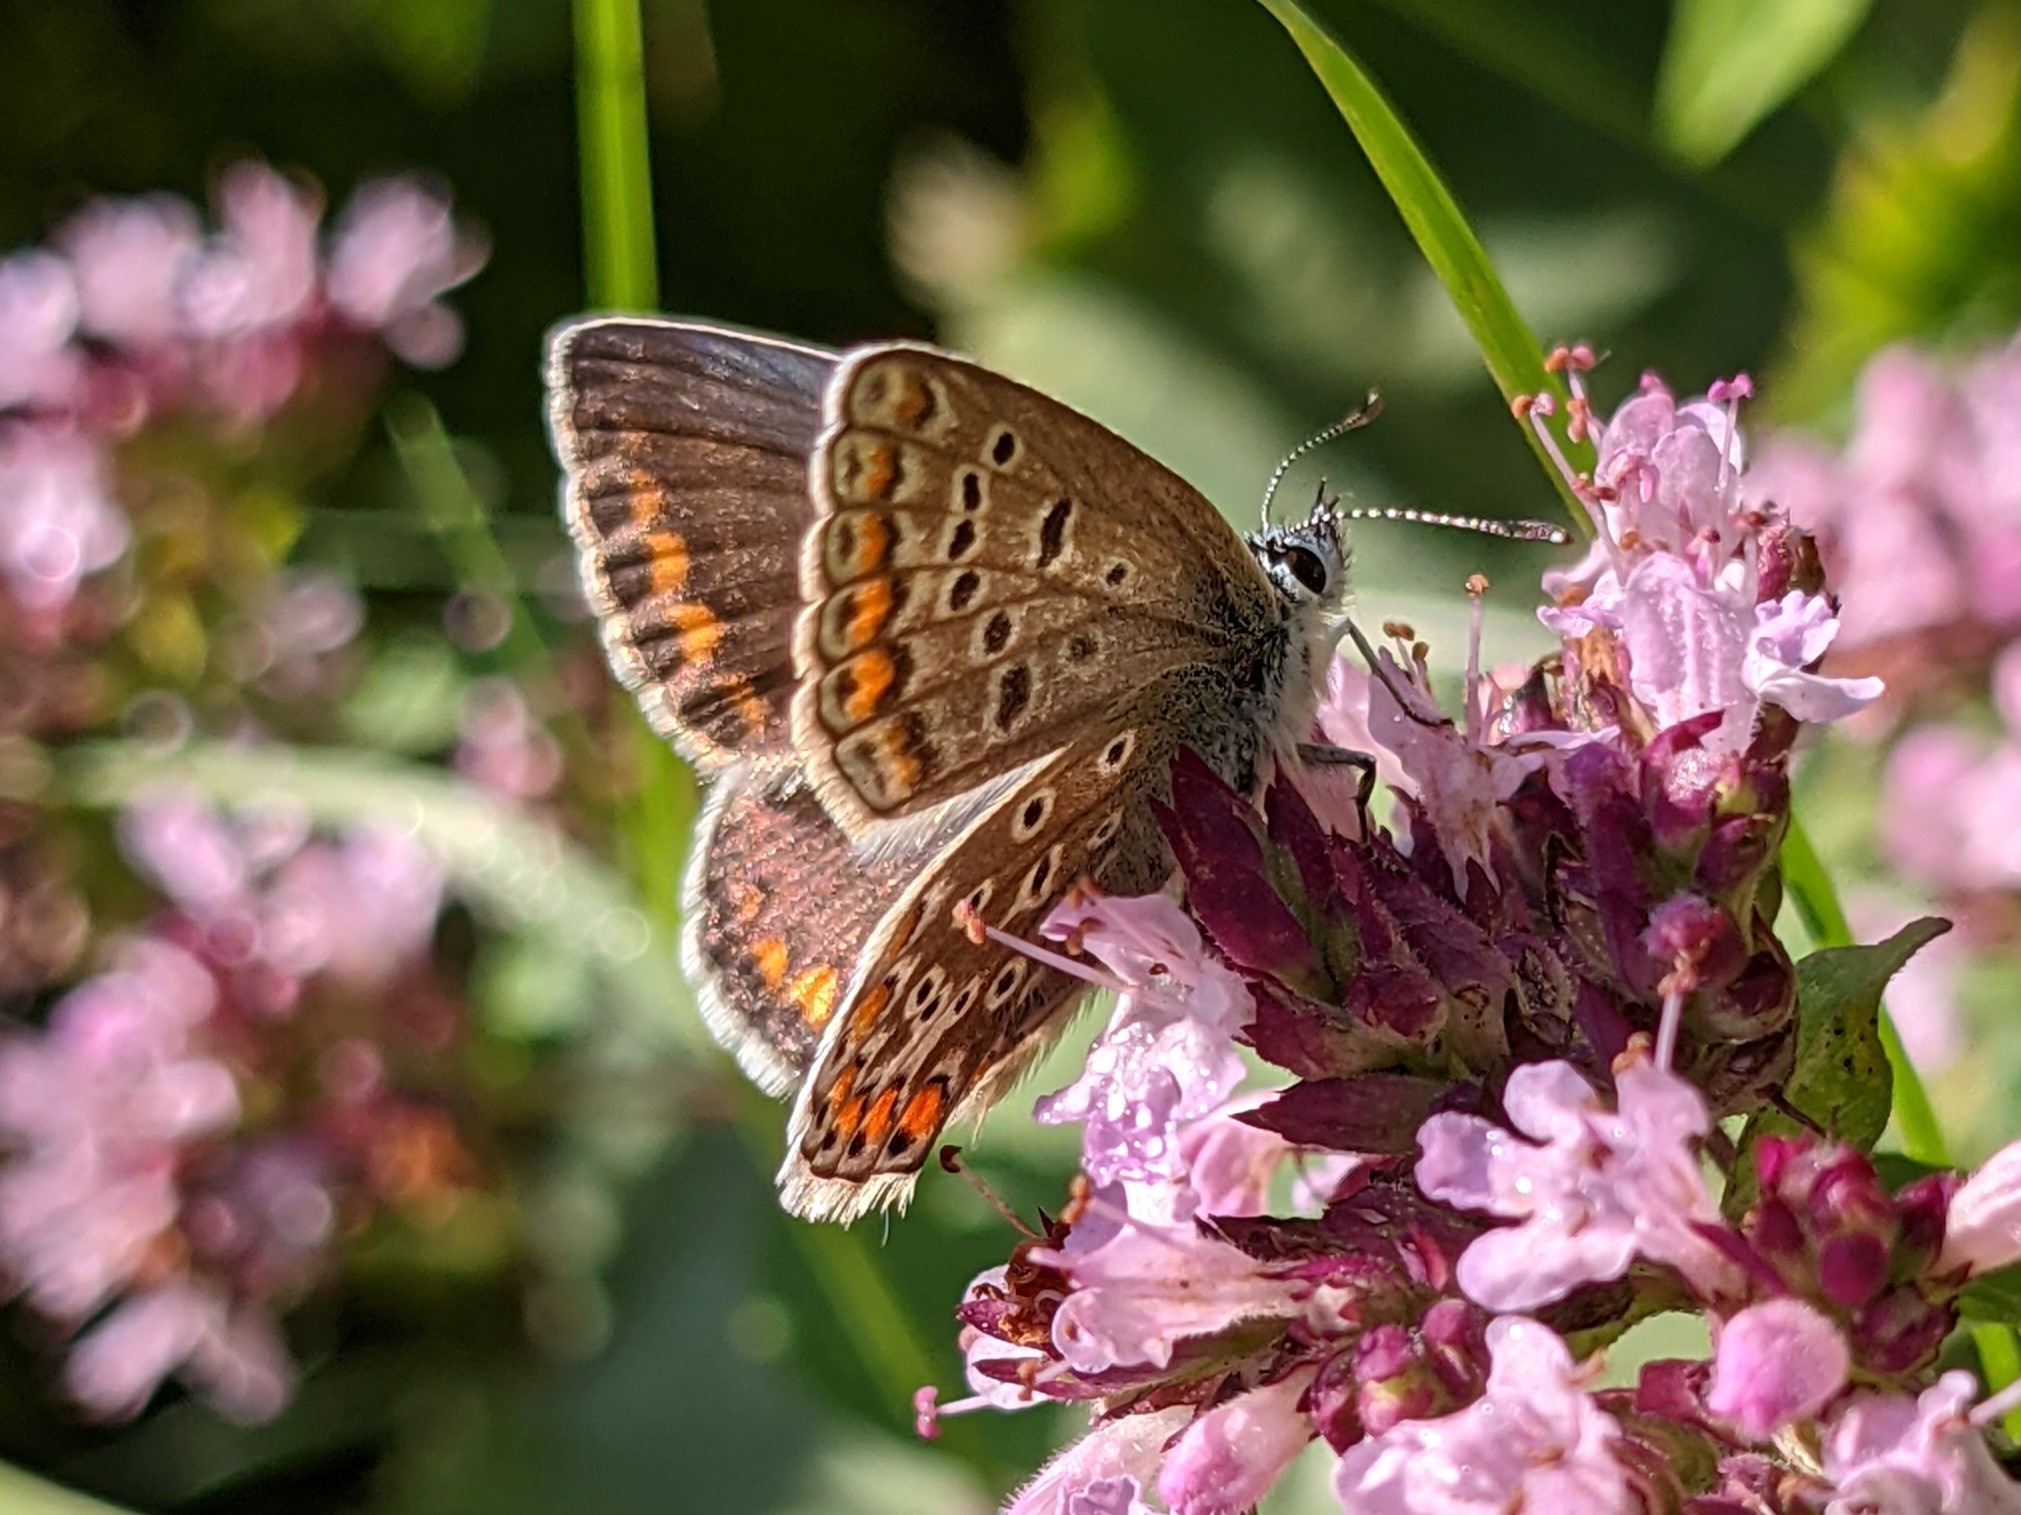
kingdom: Animalia
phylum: Arthropoda
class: Insecta
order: Lepidoptera
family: Lycaenidae
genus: Polyommatus
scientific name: Polyommatus icarus
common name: Almindelig blåfugl
